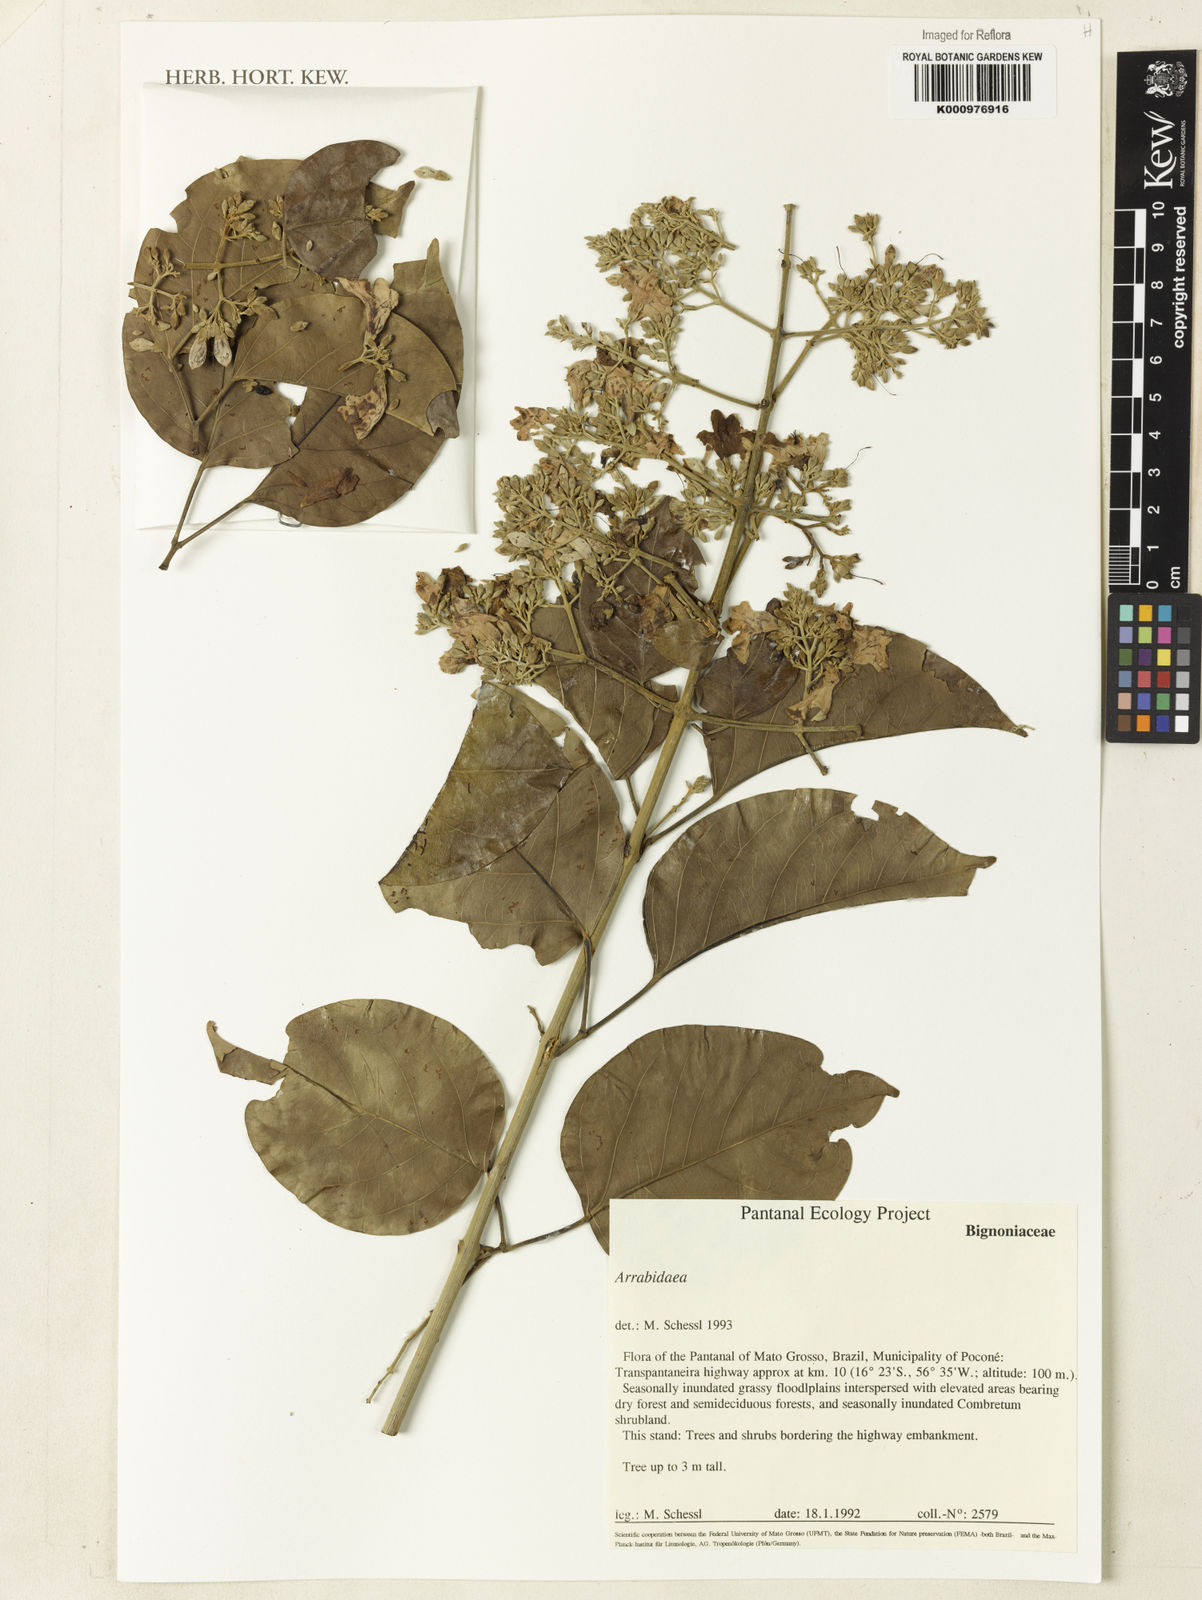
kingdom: Plantae
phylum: Tracheophyta
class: Magnoliopsida
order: Rosales
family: Rhamnaceae
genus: Arrabidaea
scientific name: Arrabidaea
